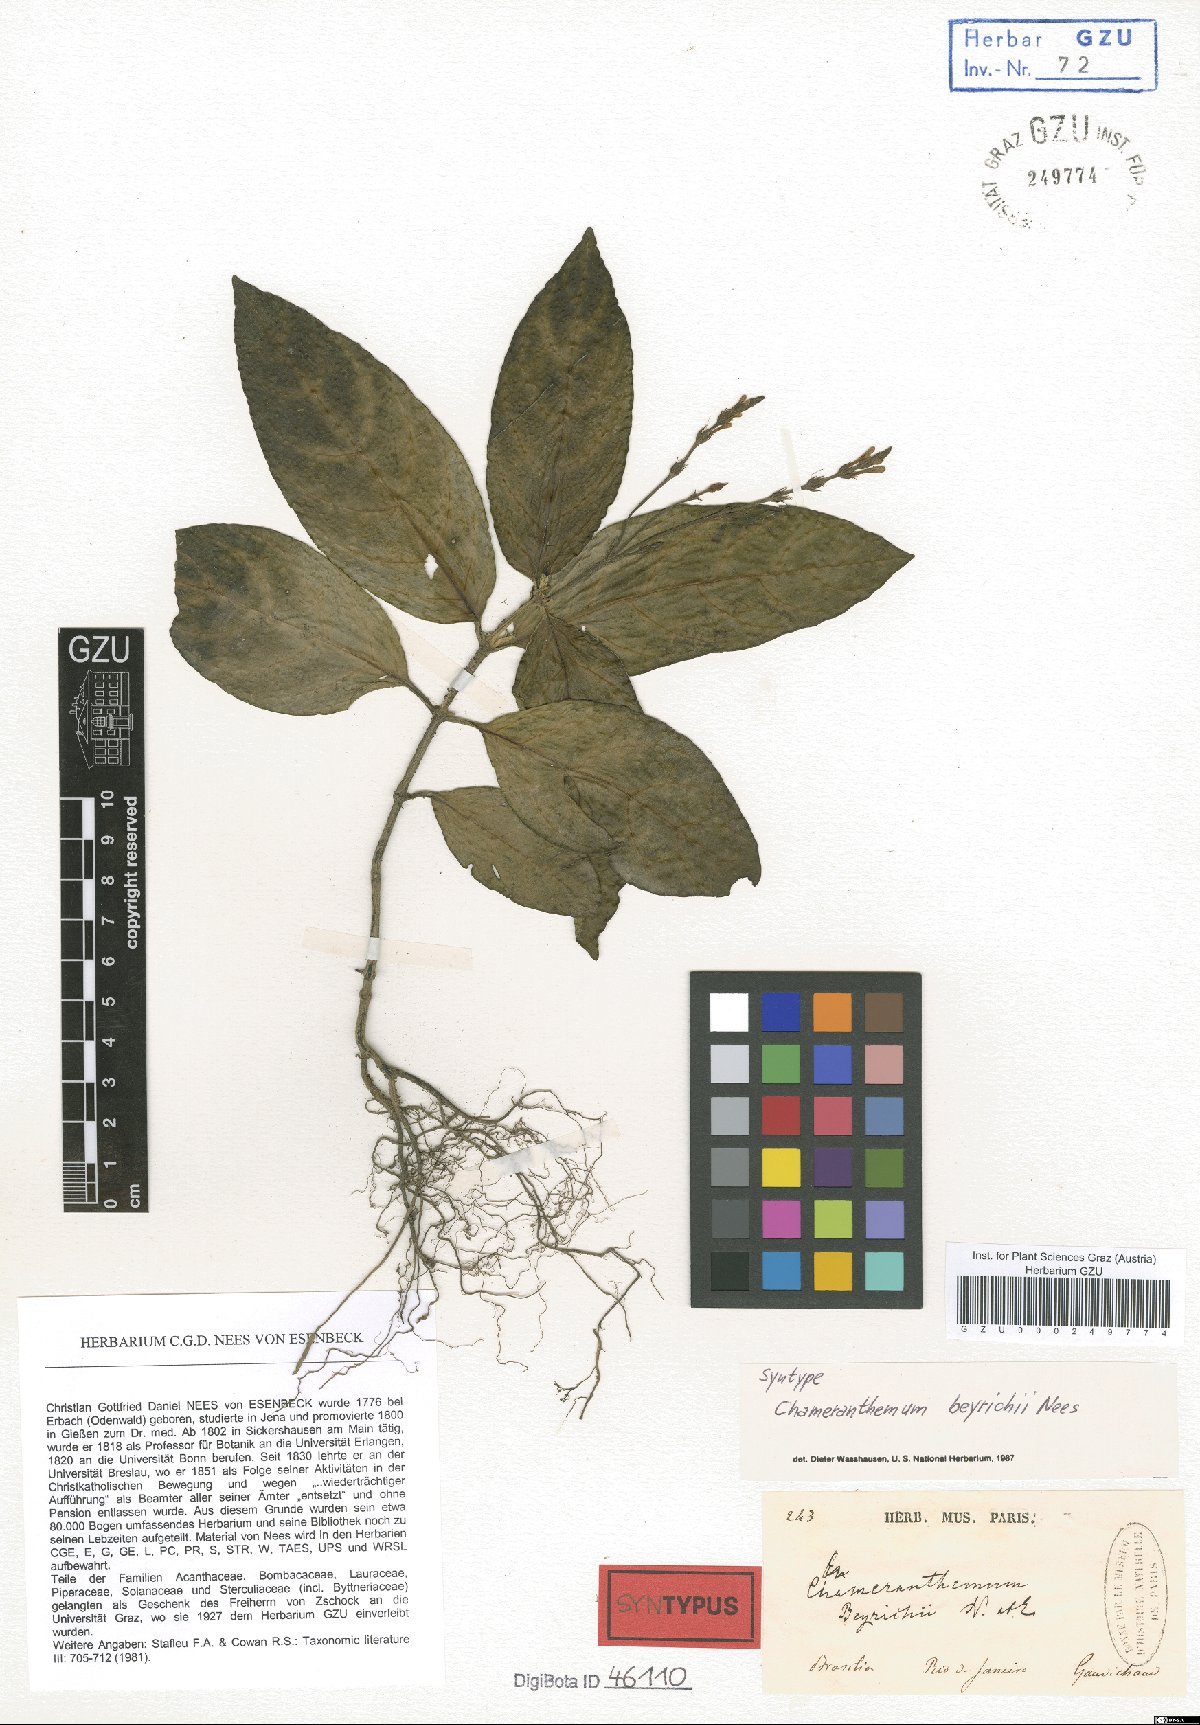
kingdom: Plantae
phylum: Tracheophyta
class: Magnoliopsida
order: Lamiales
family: Acanthaceae
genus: Chamaeranthemum
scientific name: Chamaeranthemum beyrichii
